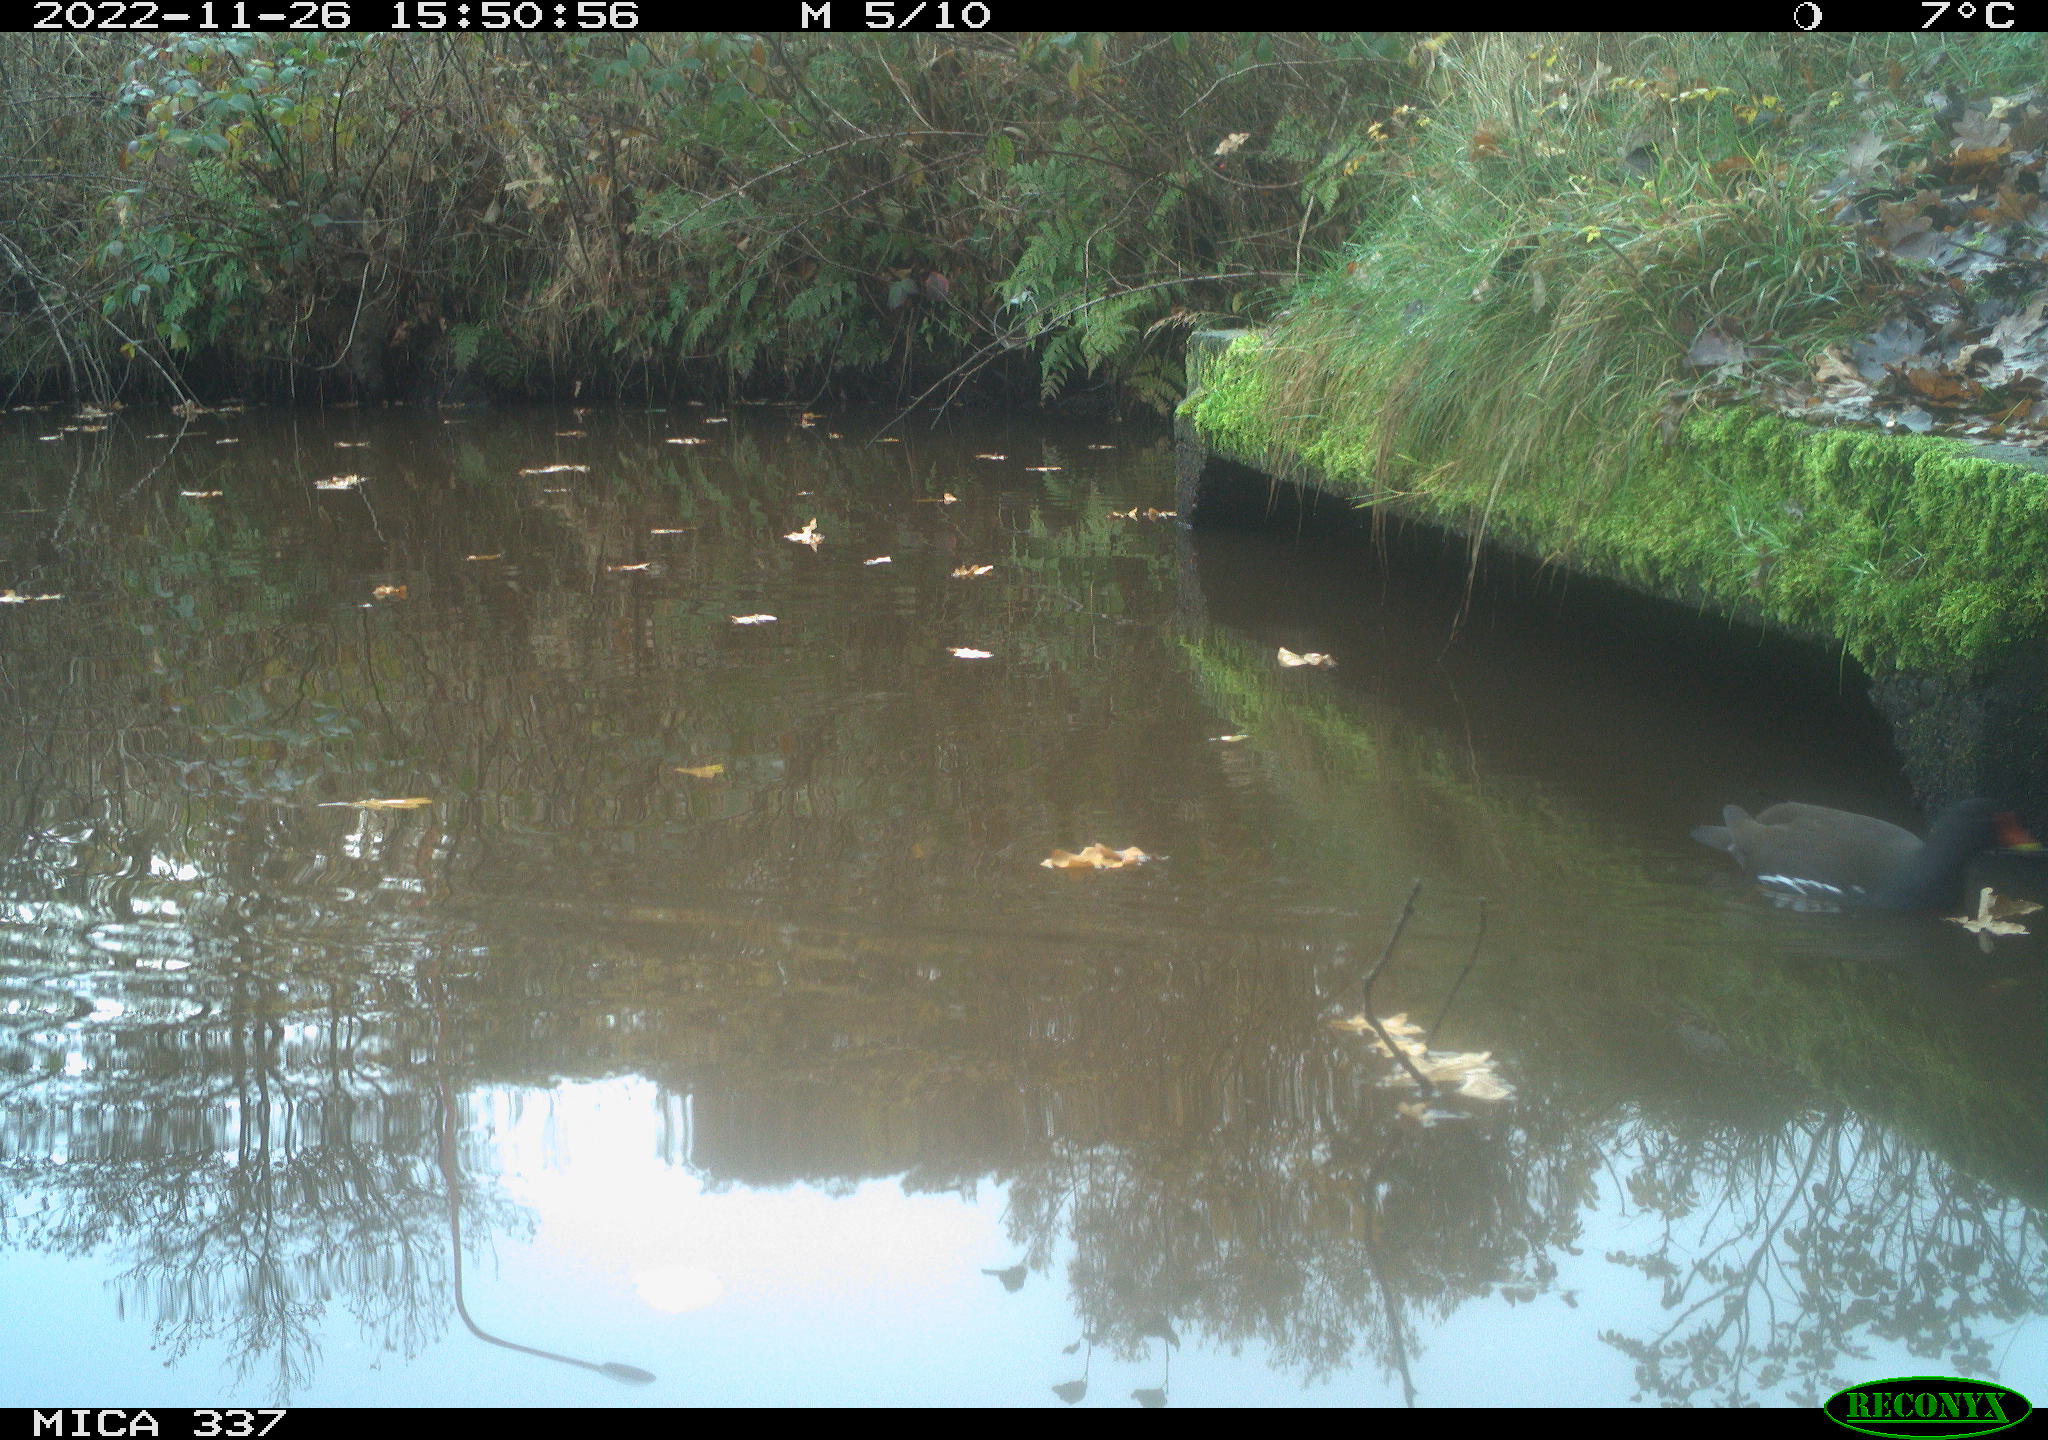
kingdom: Animalia
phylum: Chordata
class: Aves
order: Gruiformes
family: Rallidae
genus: Gallinula
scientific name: Gallinula chloropus
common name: Common moorhen
